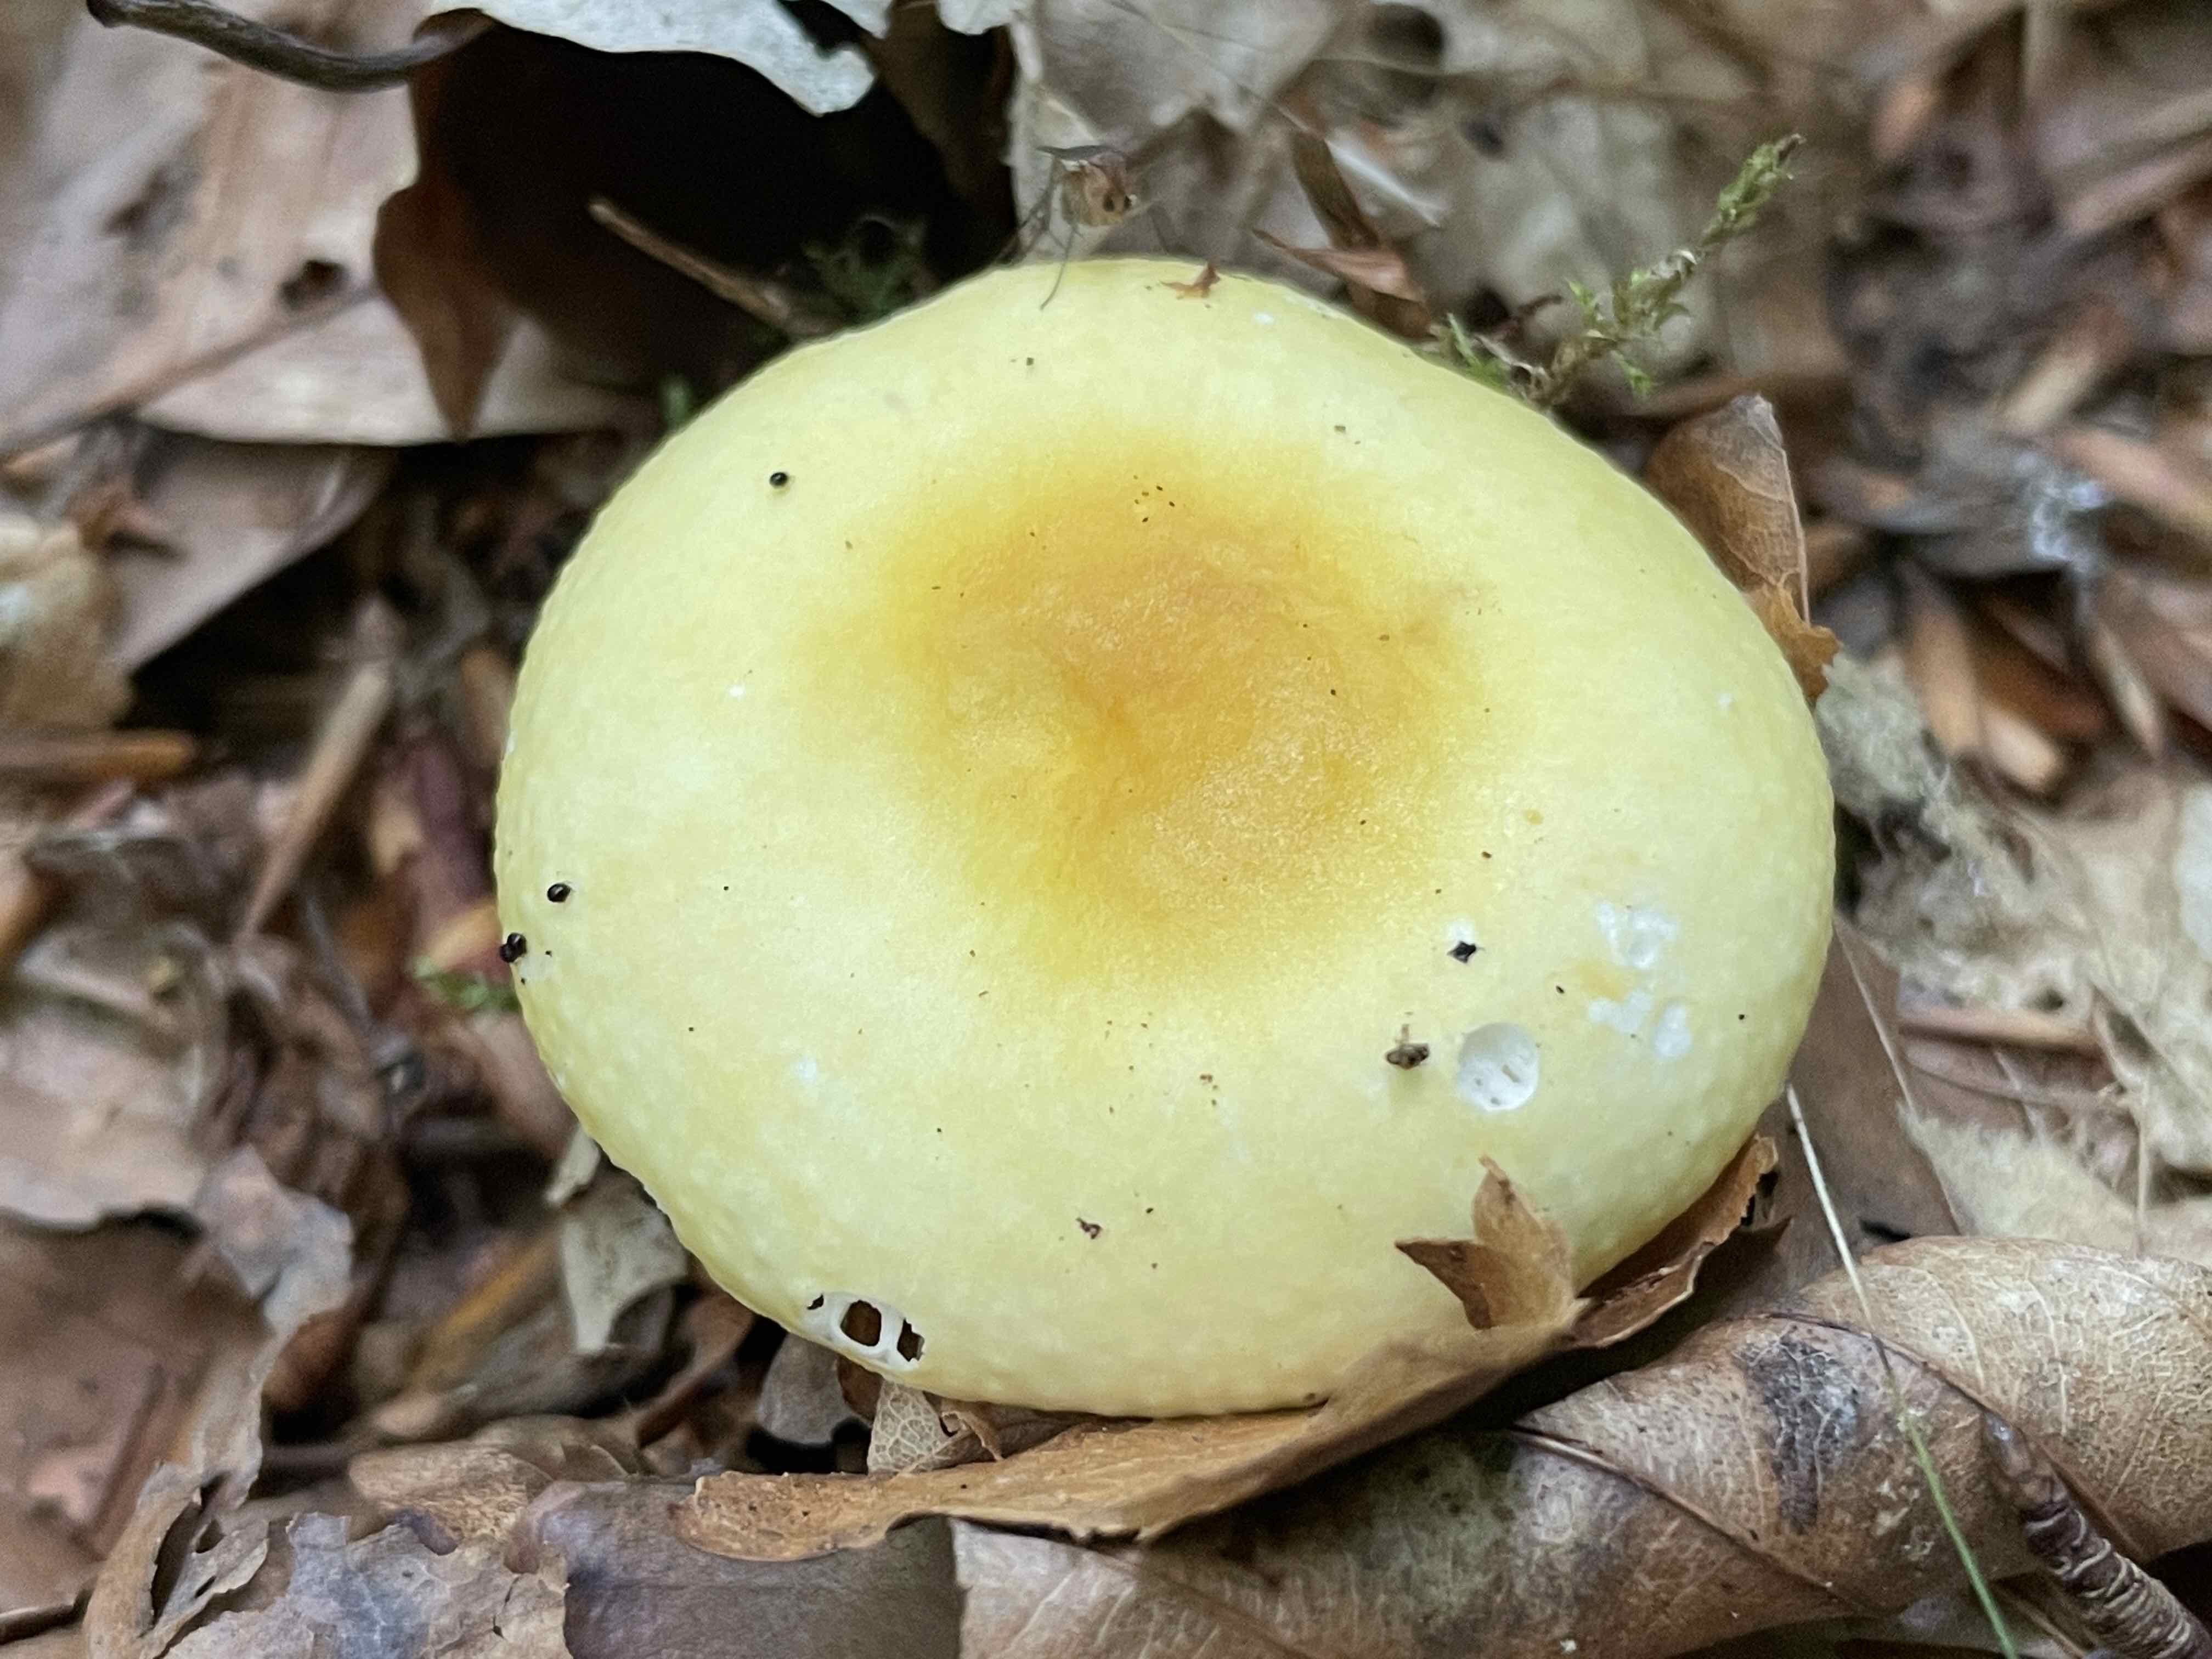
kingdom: Fungi
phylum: Basidiomycota
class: Agaricomycetes
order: Russulales
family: Russulaceae
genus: Russula
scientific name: Russula ochroleuca
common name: okkergul skørhat
